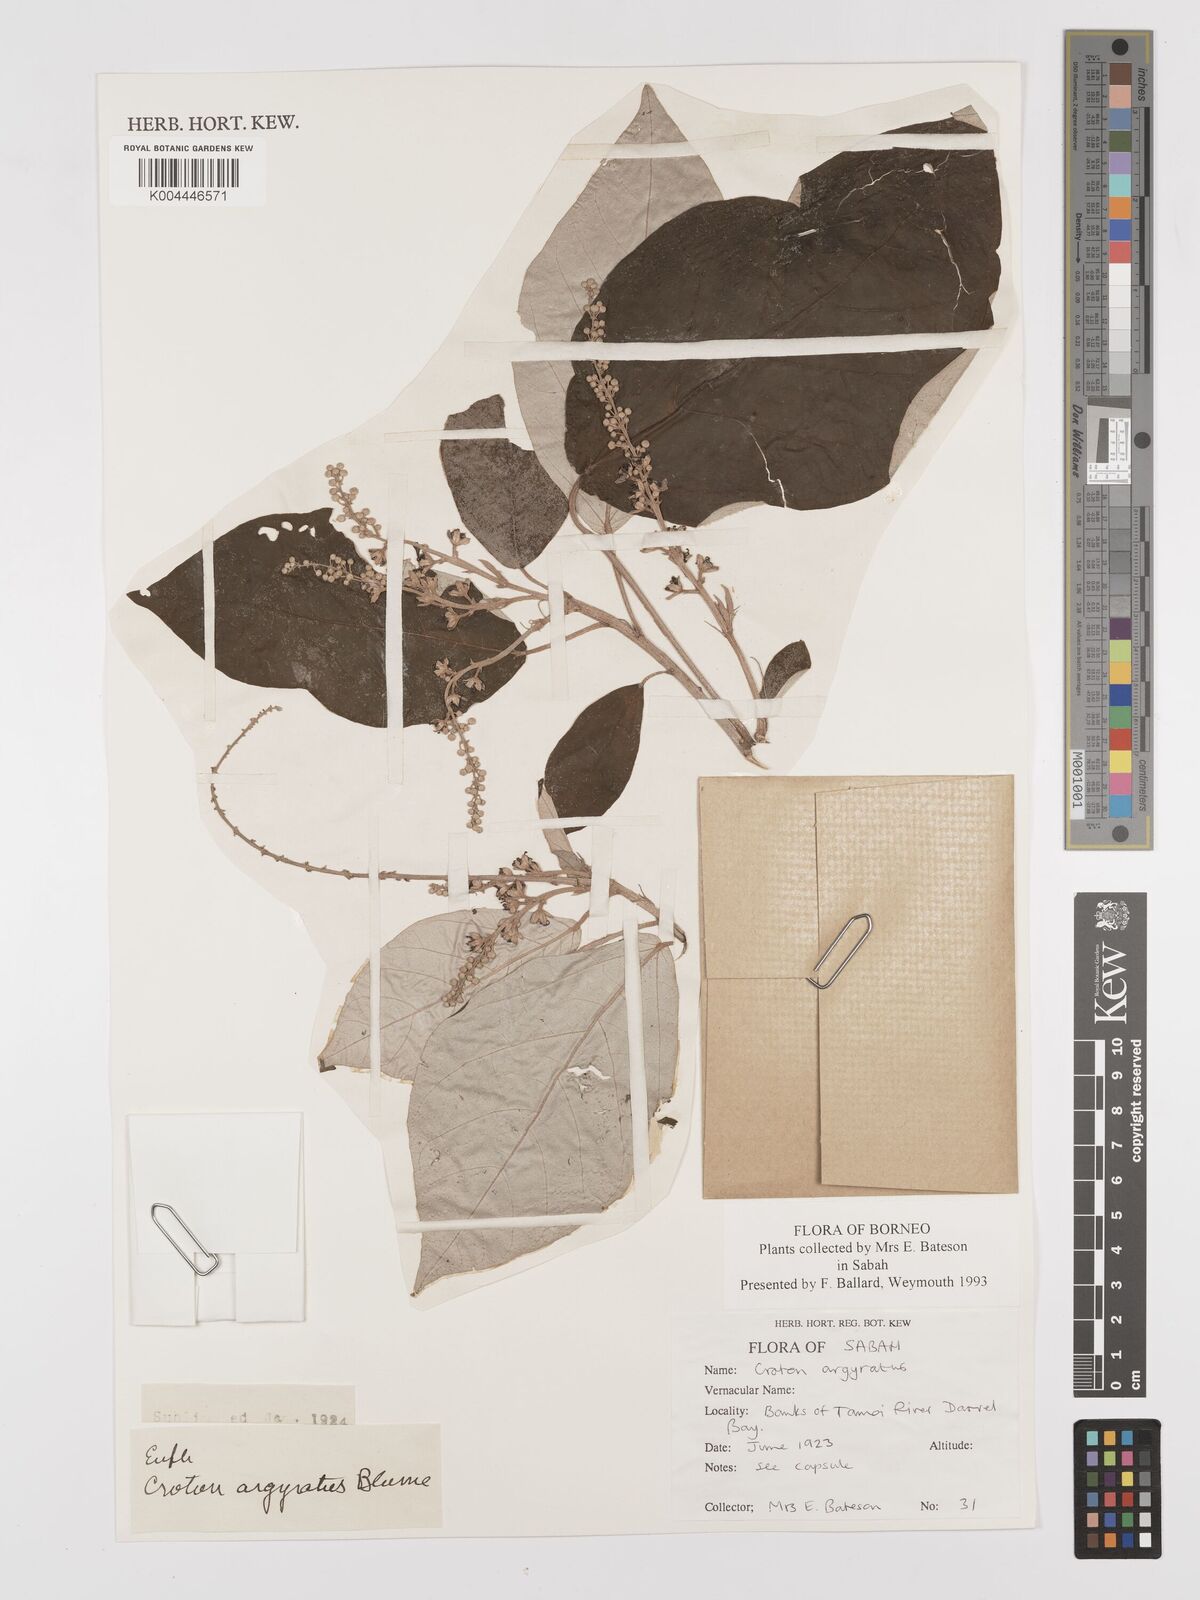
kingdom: Plantae
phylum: Tracheophyta
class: Magnoliopsida
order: Malpighiales
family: Euphorbiaceae
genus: Croton
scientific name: Croton argyratus
